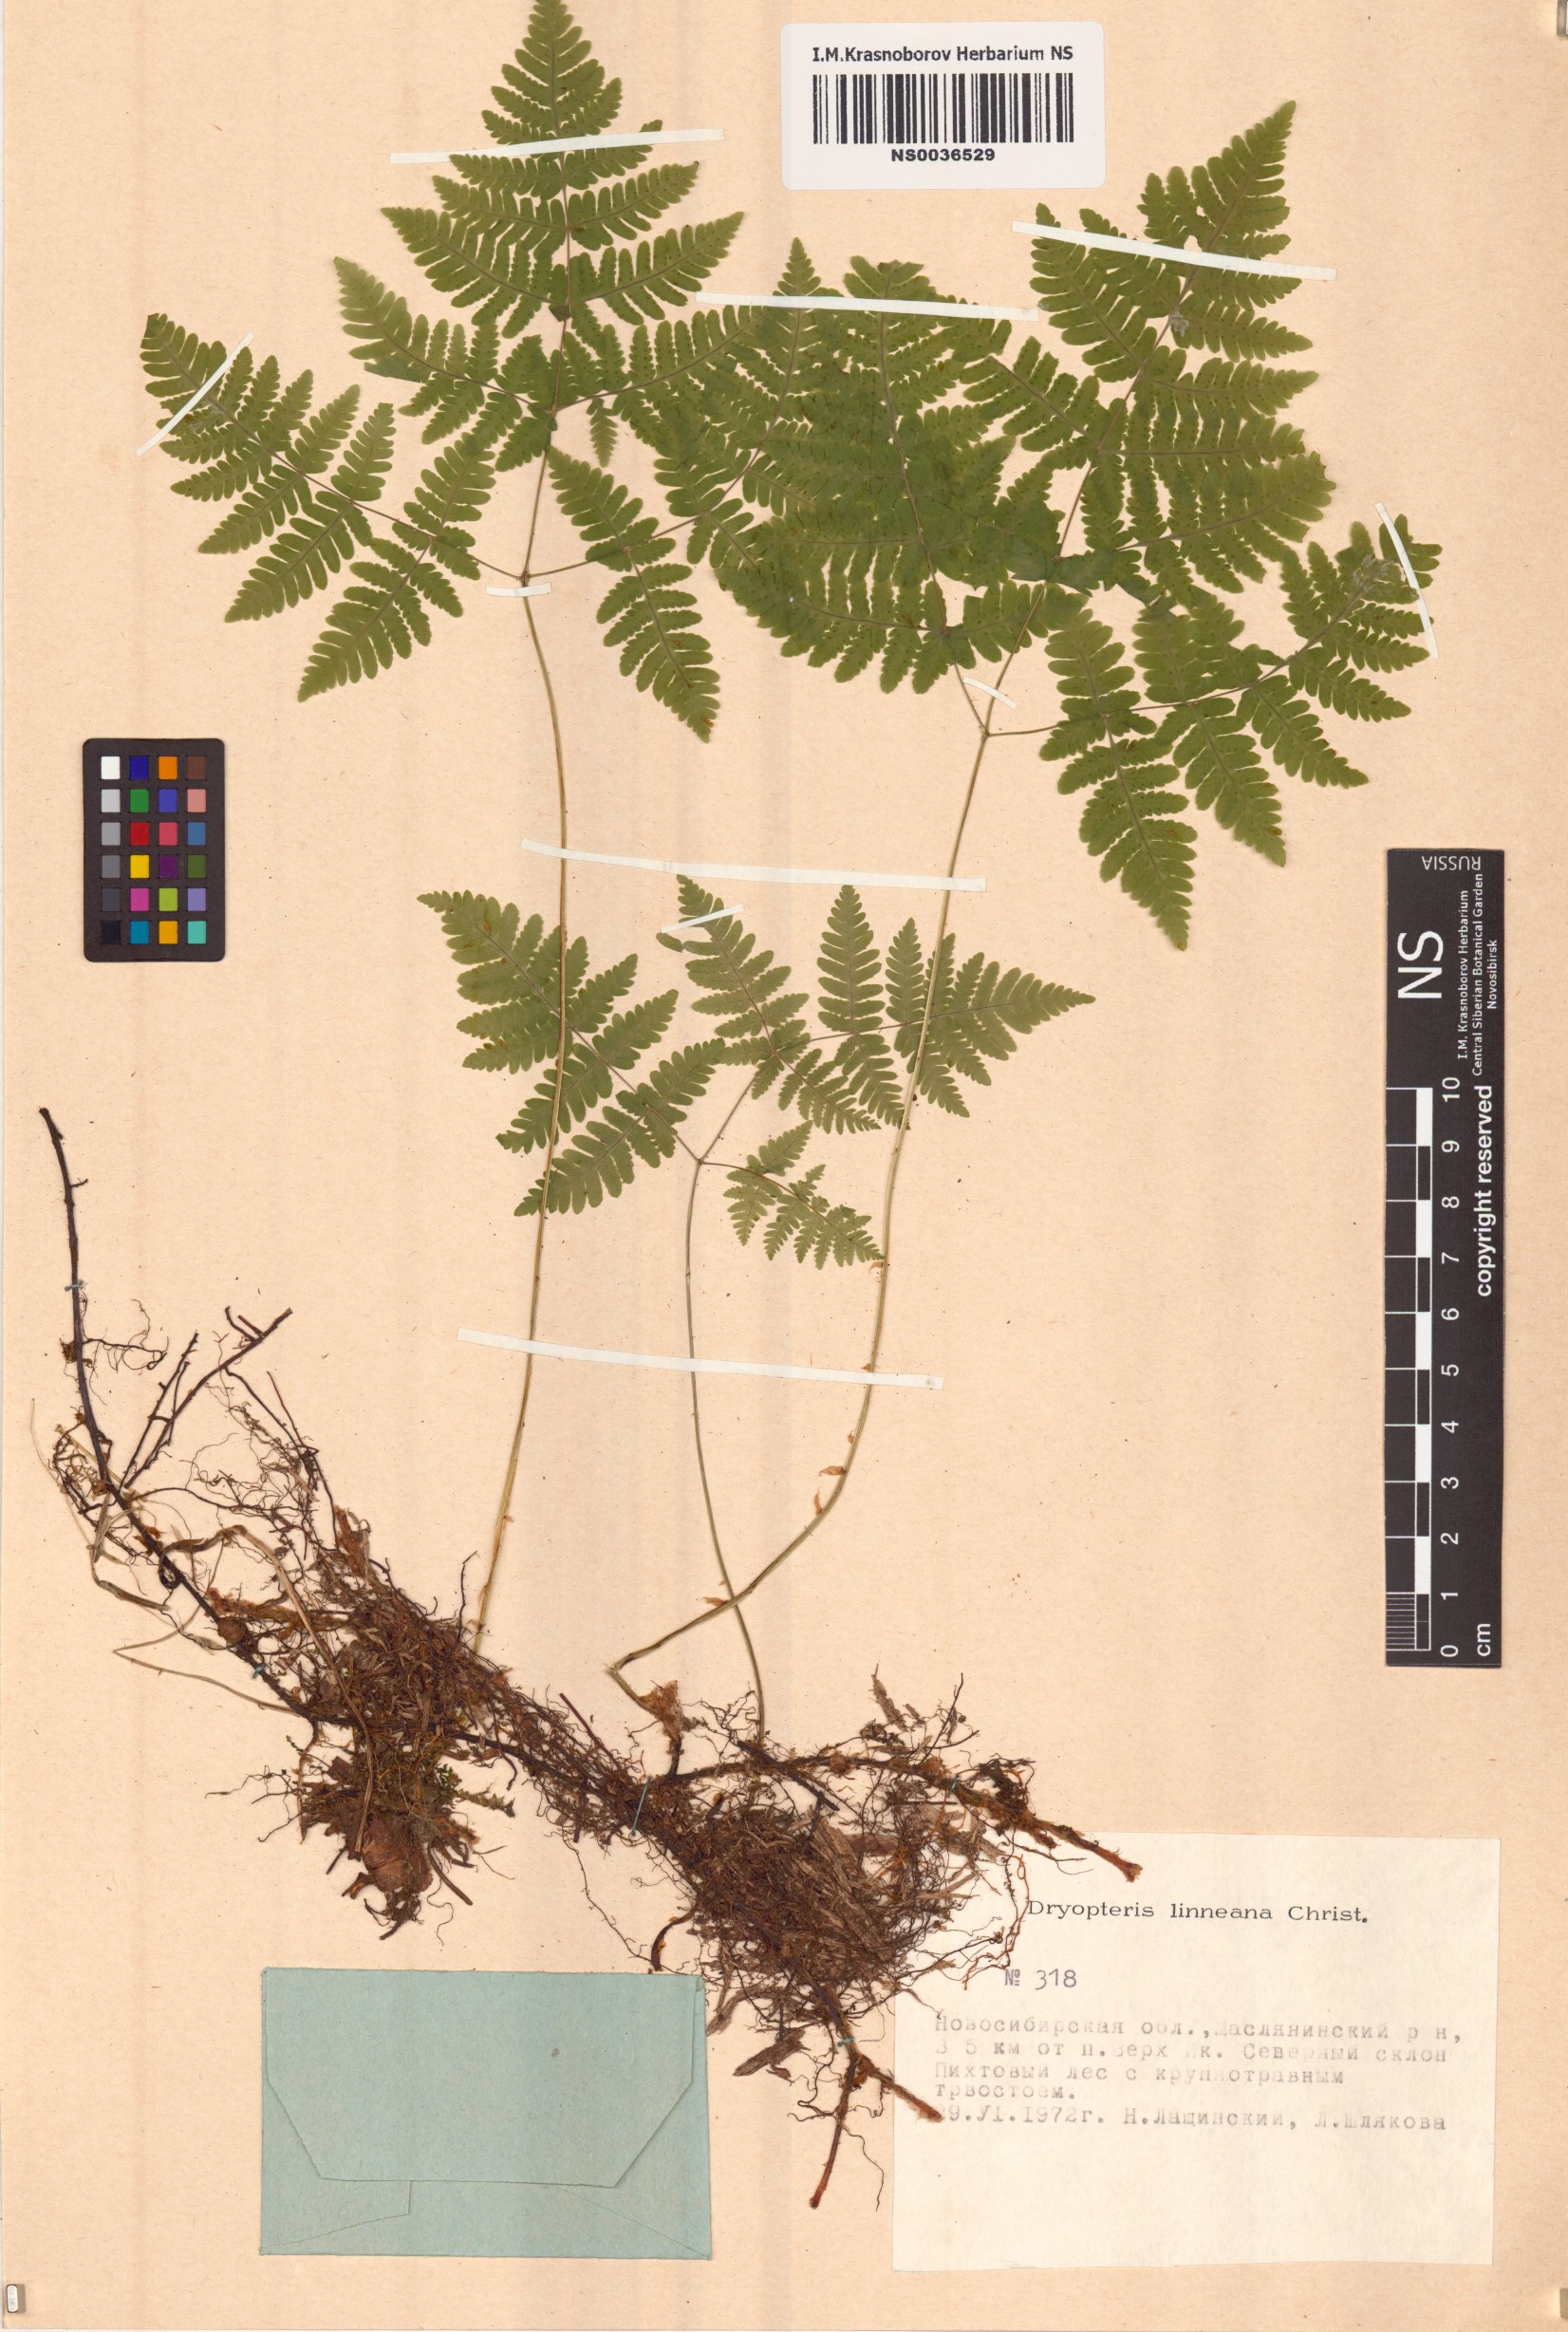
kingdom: Plantae
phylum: Tracheophyta
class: Polypodiopsida
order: Polypodiales
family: Cystopteridaceae
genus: Gymnocarpium
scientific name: Gymnocarpium dryopteris
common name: Oak fern
